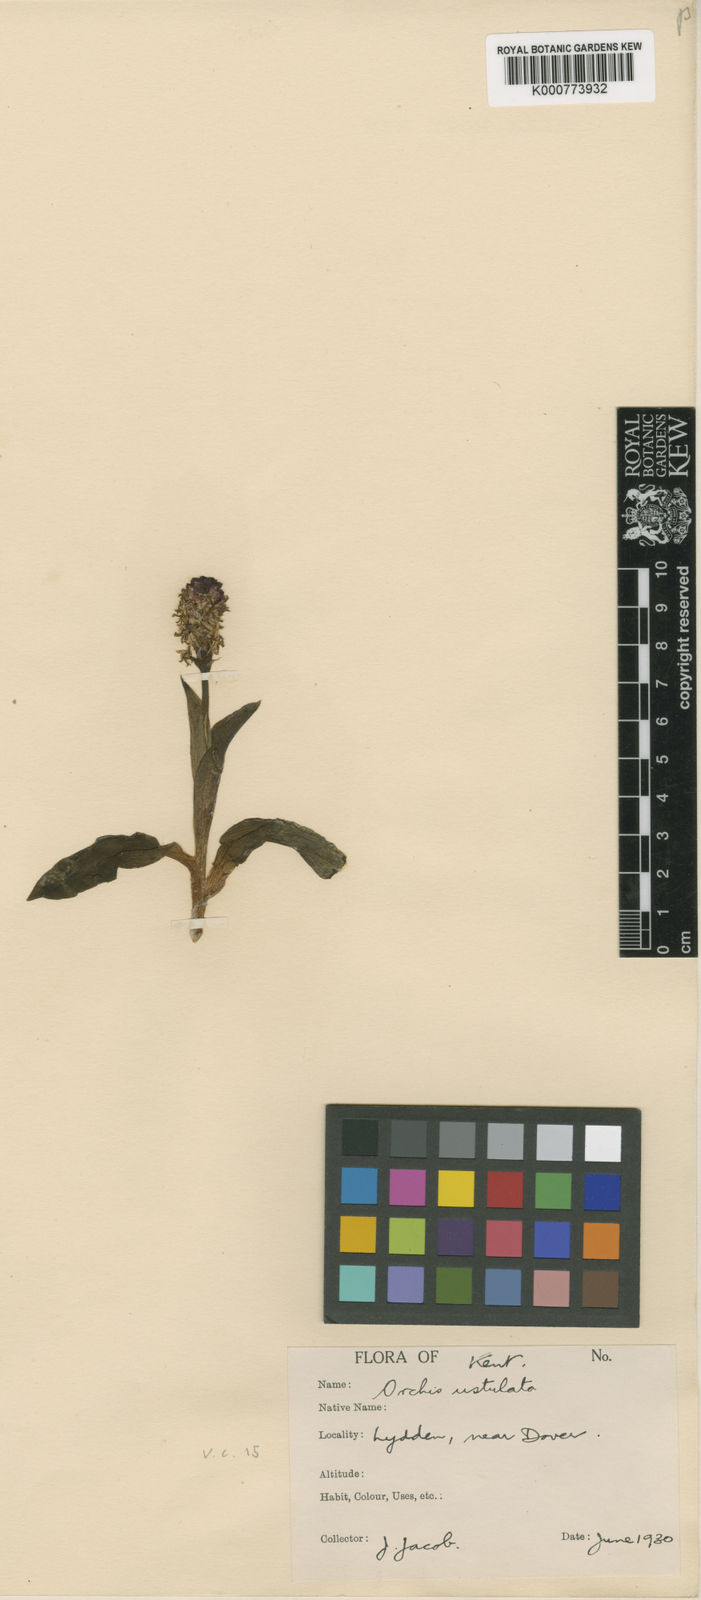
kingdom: Plantae
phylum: Tracheophyta
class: Liliopsida
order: Asparagales
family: Orchidaceae
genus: Neotinea
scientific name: Neotinea ustulata
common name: Burnt orchid
